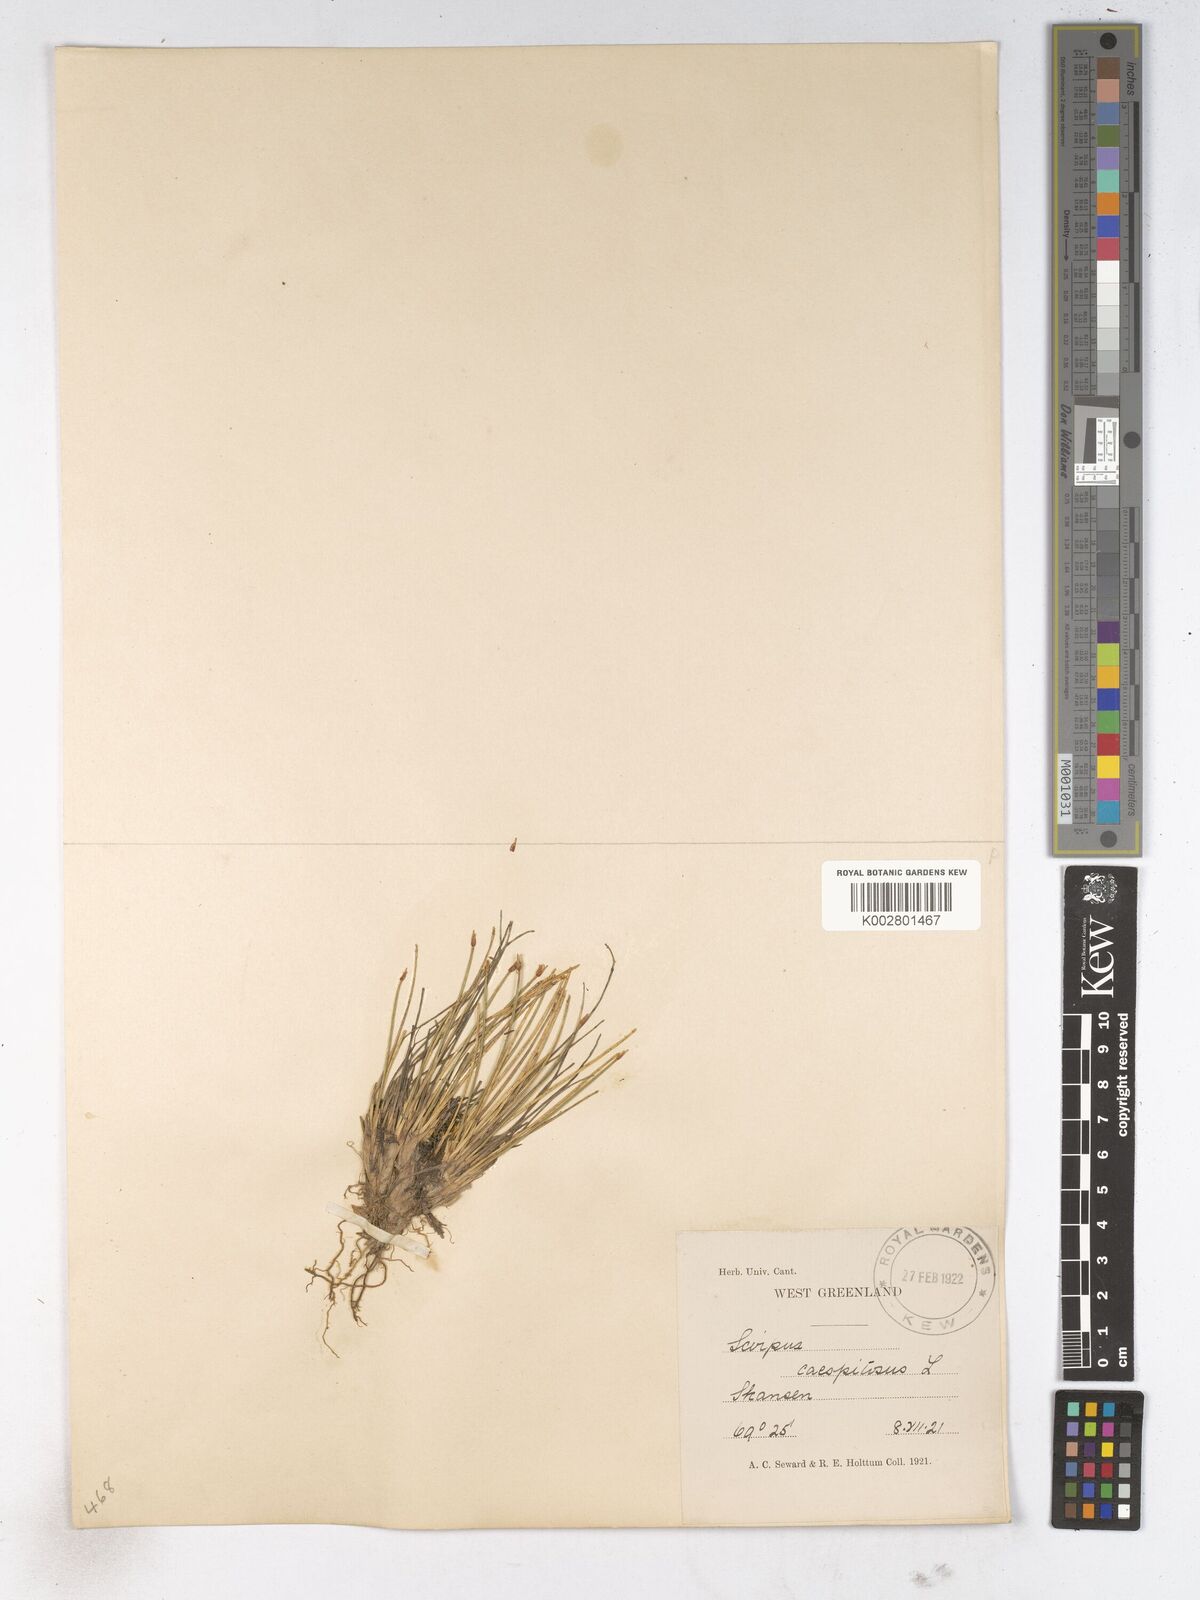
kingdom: Plantae
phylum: Tracheophyta
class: Liliopsida
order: Poales
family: Cyperaceae
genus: Trichophorum
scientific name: Trichophorum cespitosum
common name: Cespitose bulrush
